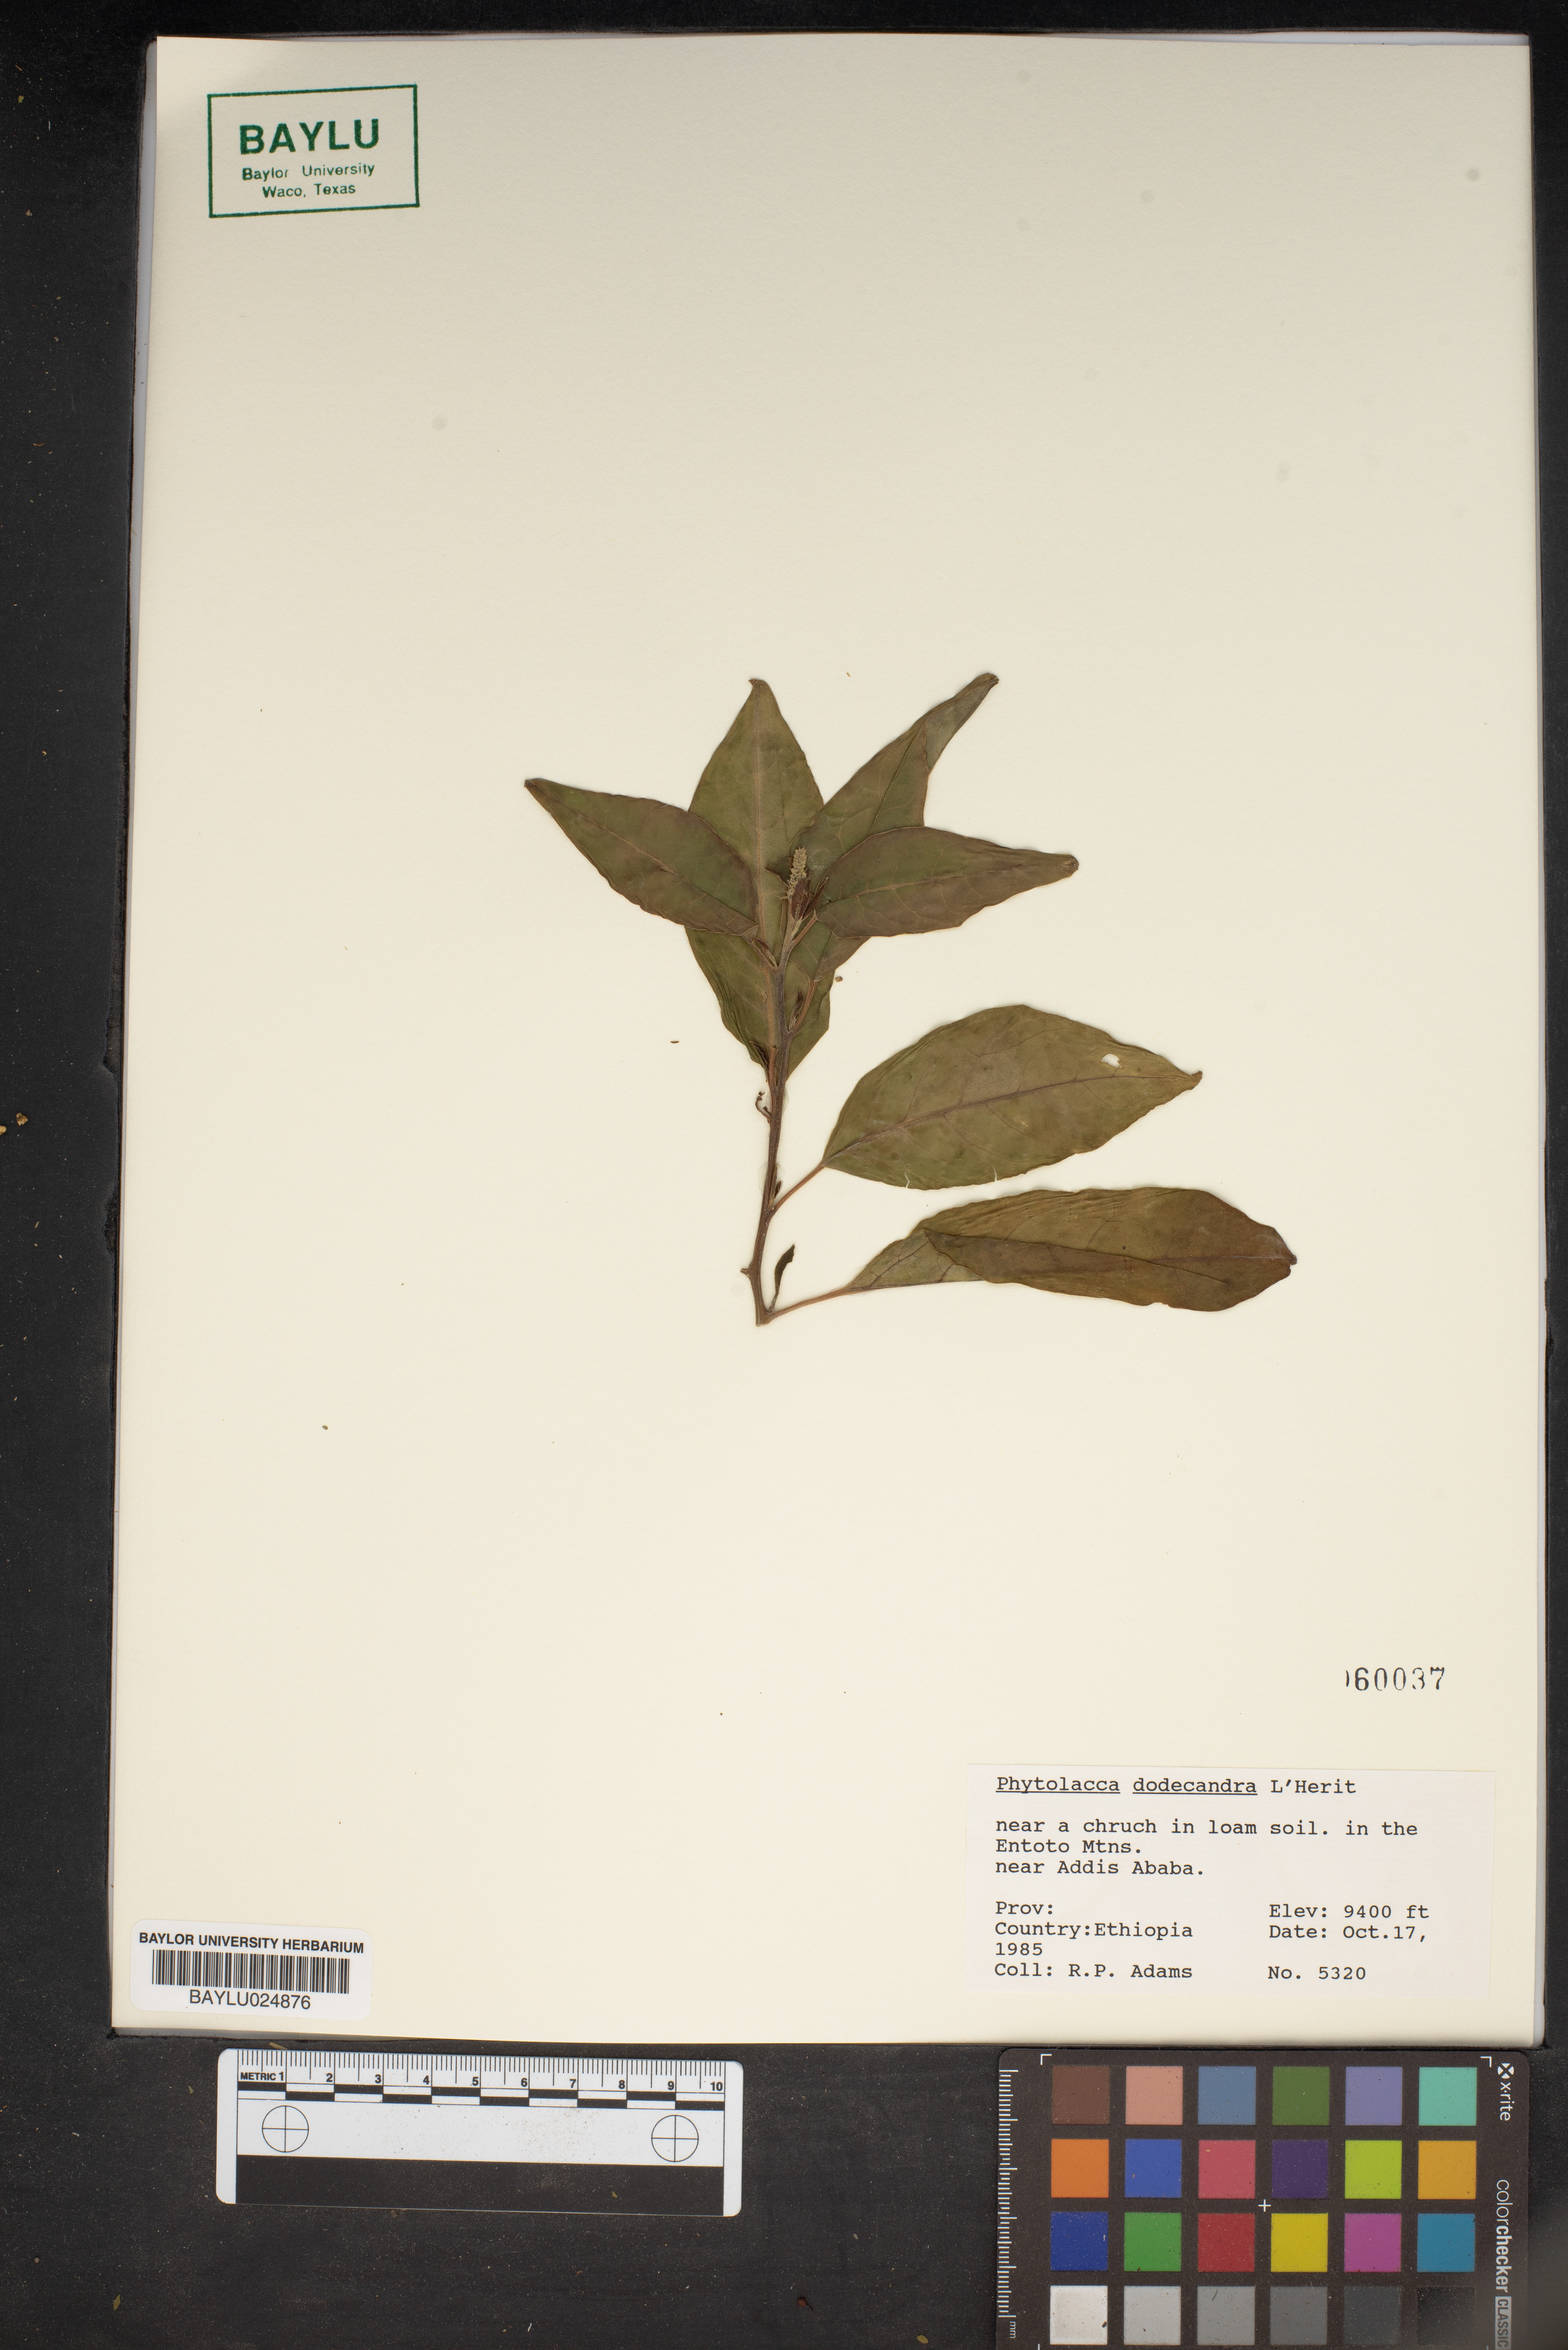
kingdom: Plantae
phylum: Tracheophyta
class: Magnoliopsida
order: Caryophyllales
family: Phytolaccaceae
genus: Phytolacca
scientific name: Phytolacca dodecandra
